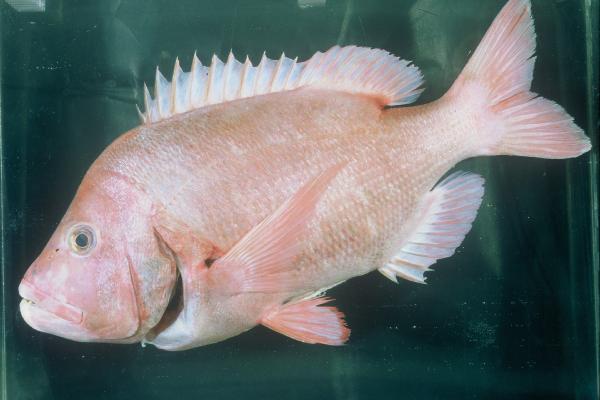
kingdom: Animalia
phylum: Chordata
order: Perciformes
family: Sparidae
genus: Chrysoblephus
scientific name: Chrysoblephus cristiceps
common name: Dageraad
